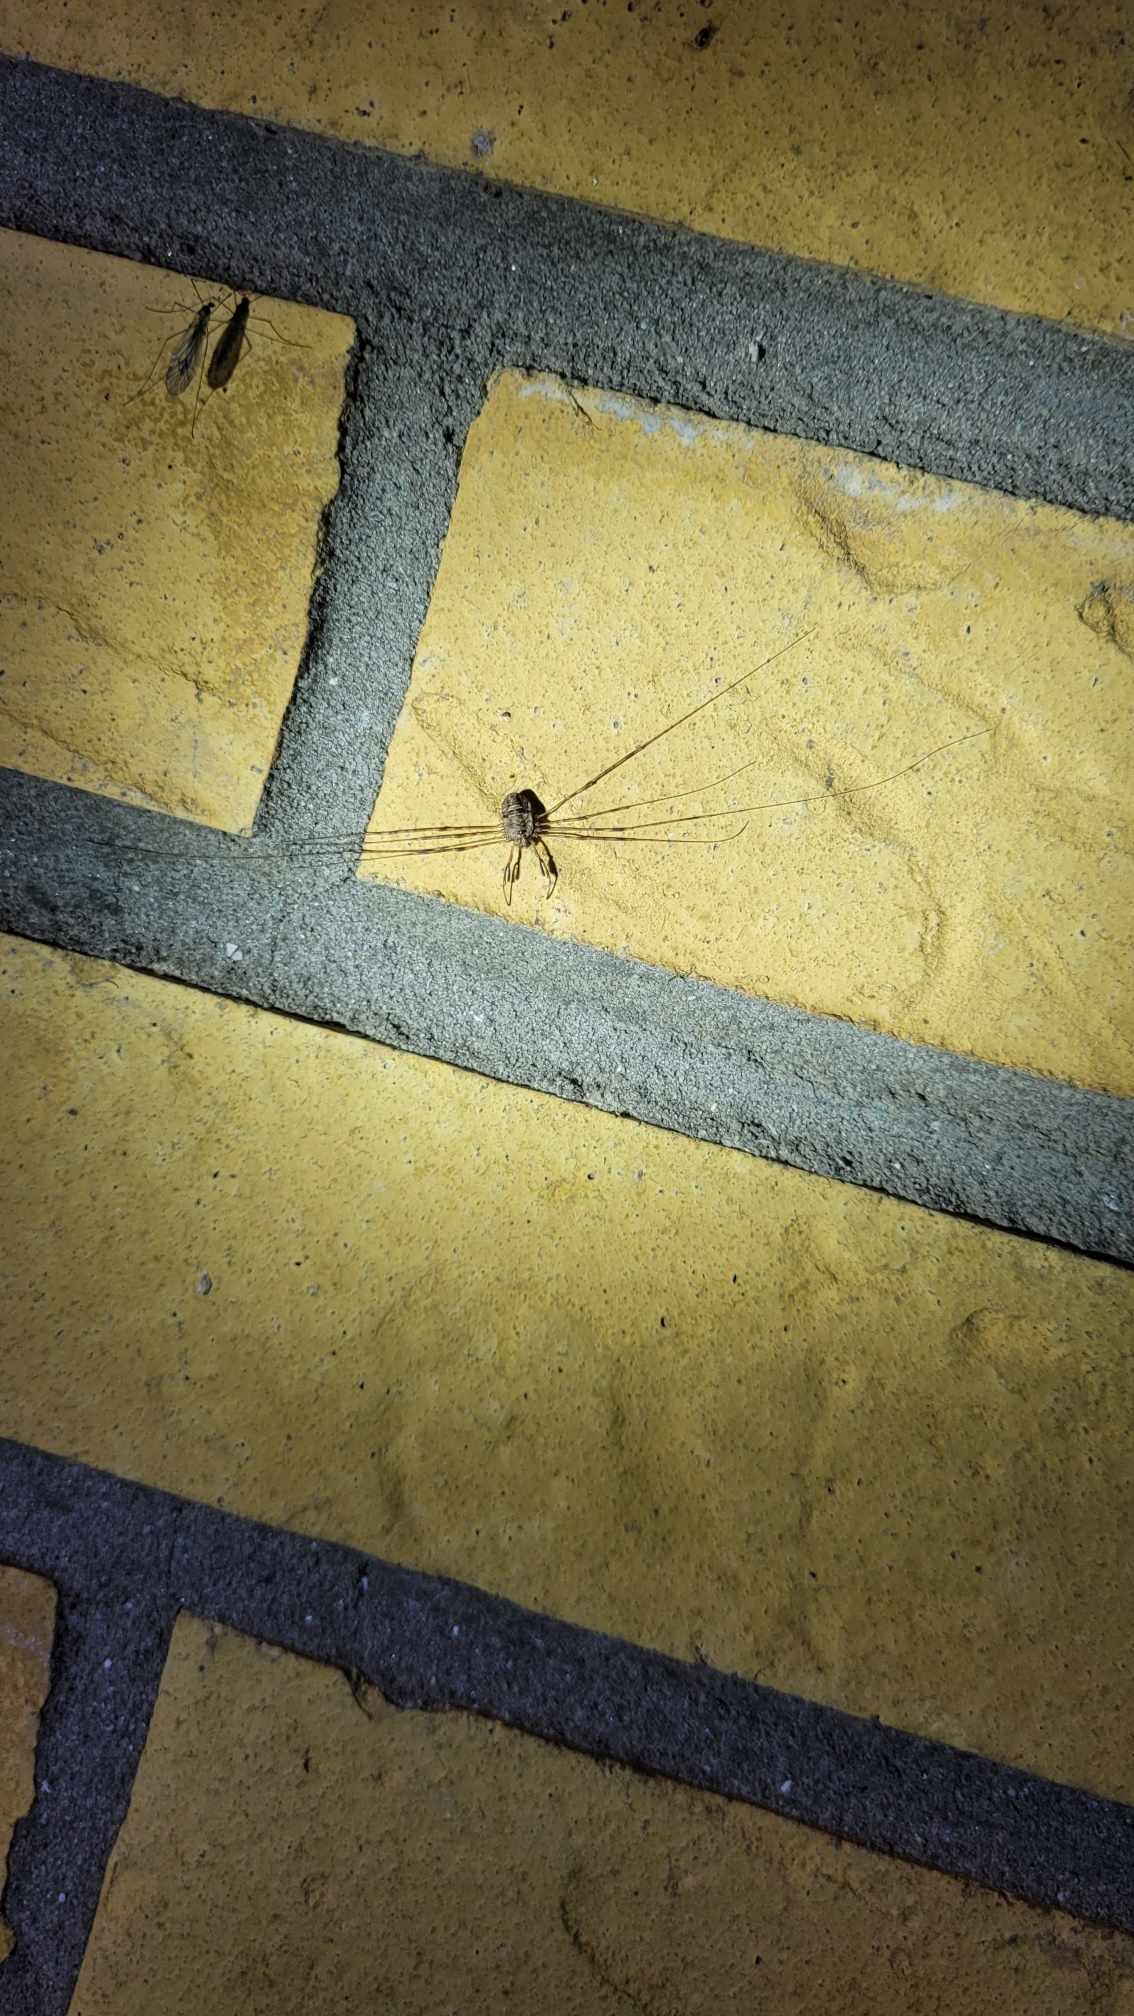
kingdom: Animalia
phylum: Arthropoda
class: Arachnida
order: Opiliones
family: Phalangiidae
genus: Dicranopalpus
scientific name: Dicranopalpus ramosus
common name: Gaffelmejer
